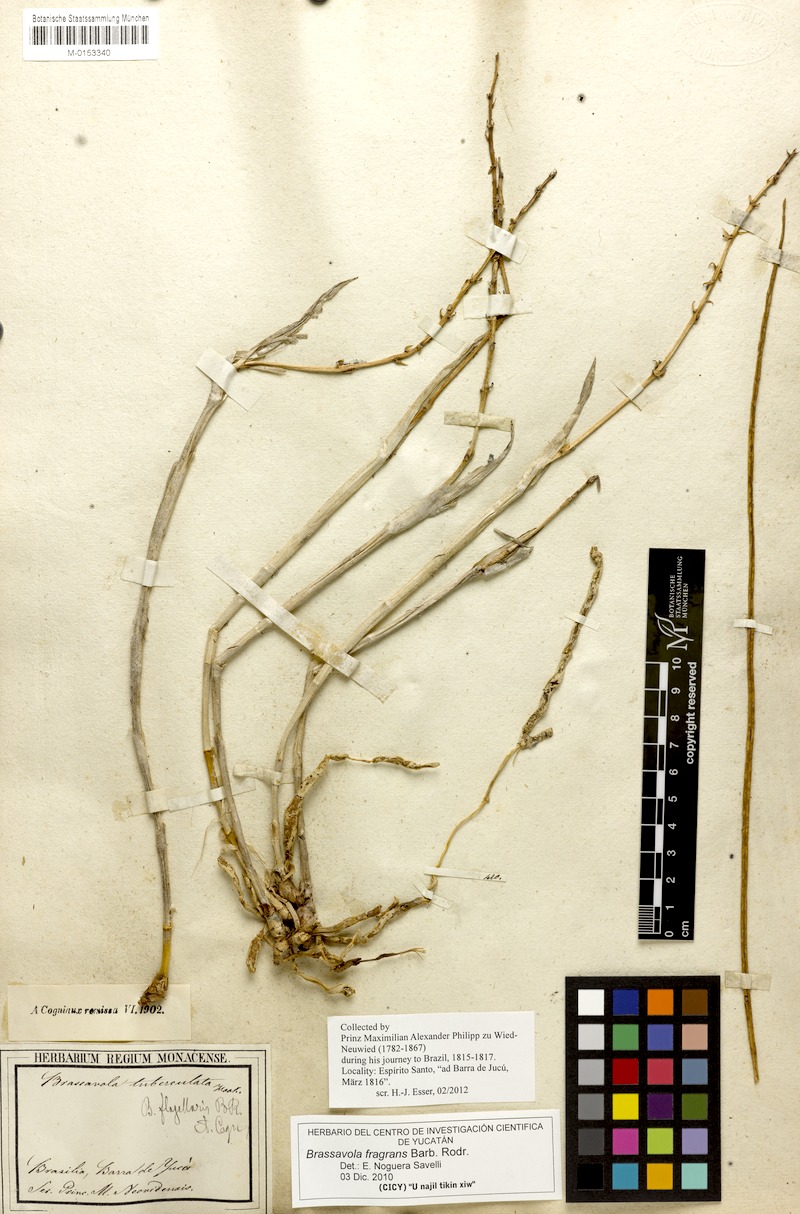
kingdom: Plantae
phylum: Tracheophyta
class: Liliopsida
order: Asparagales
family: Orchidaceae
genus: Brassavola
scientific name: Brassavola flagellaris
